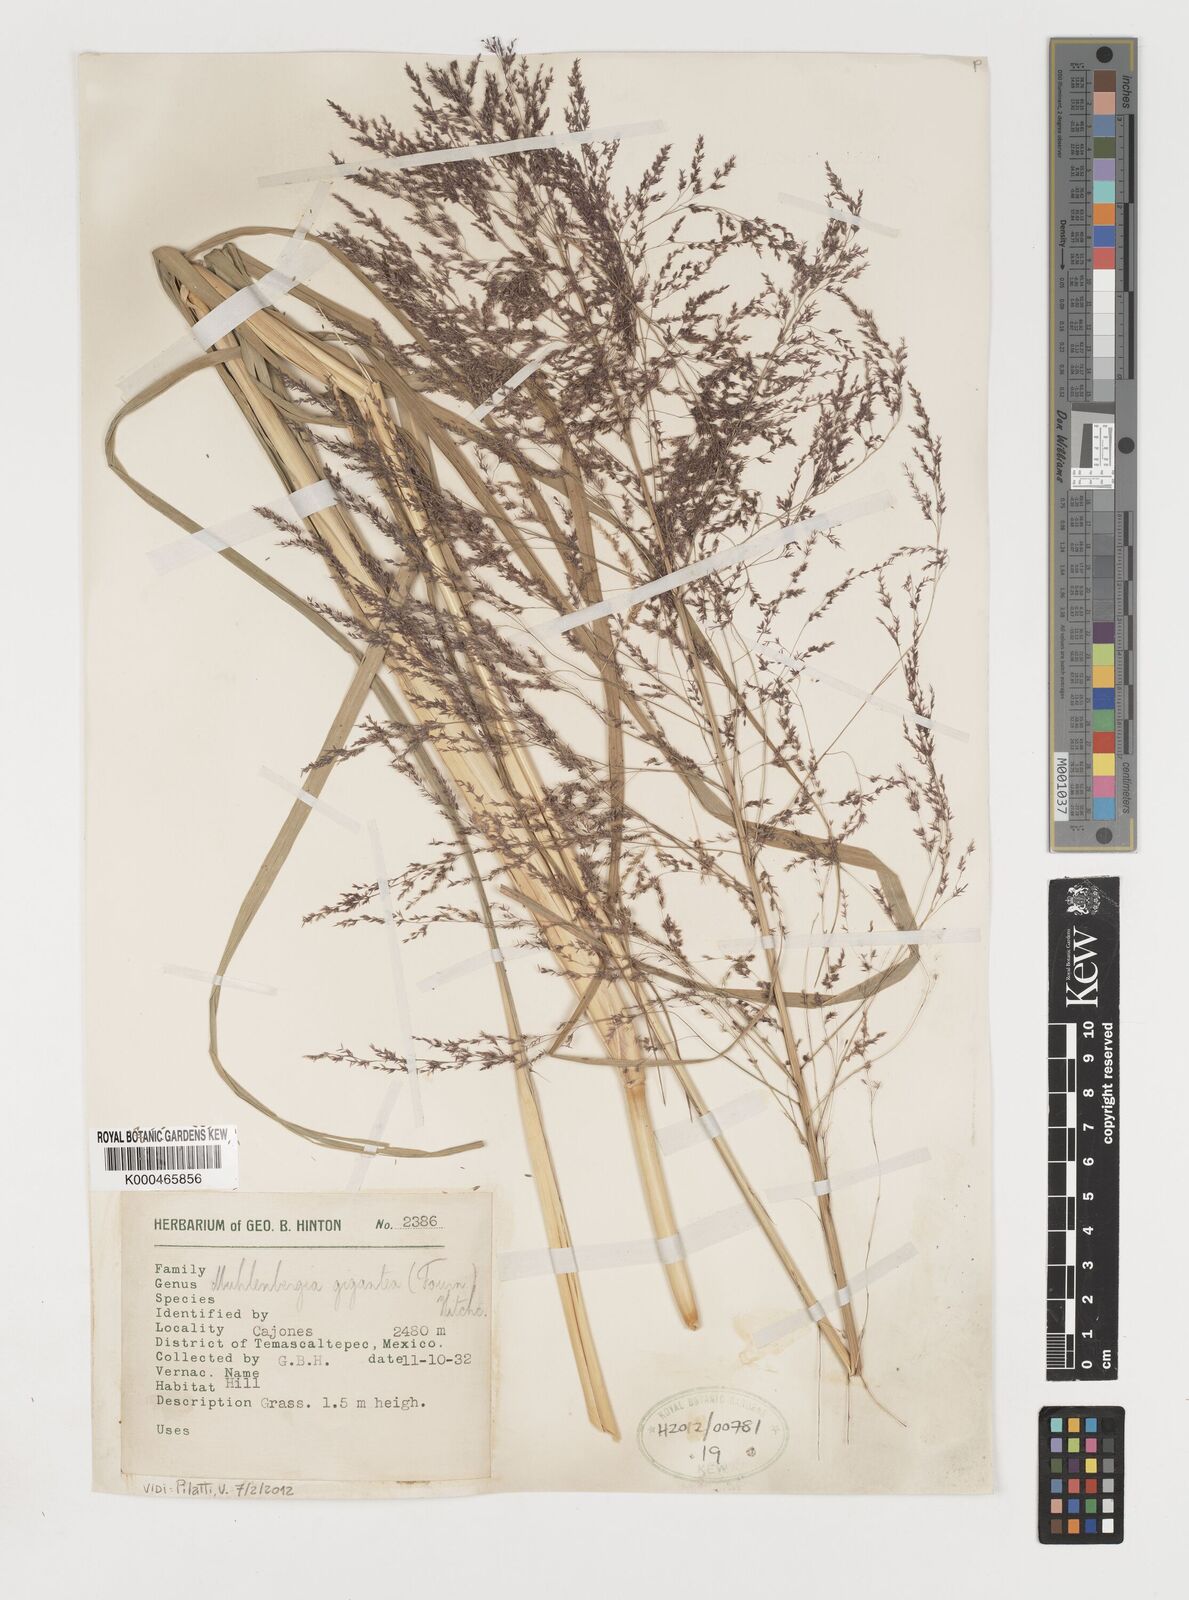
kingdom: Plantae
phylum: Tracheophyta
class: Liliopsida
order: Poales
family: Poaceae
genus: Muhlenbergia
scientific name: Muhlenbergia gigantea
